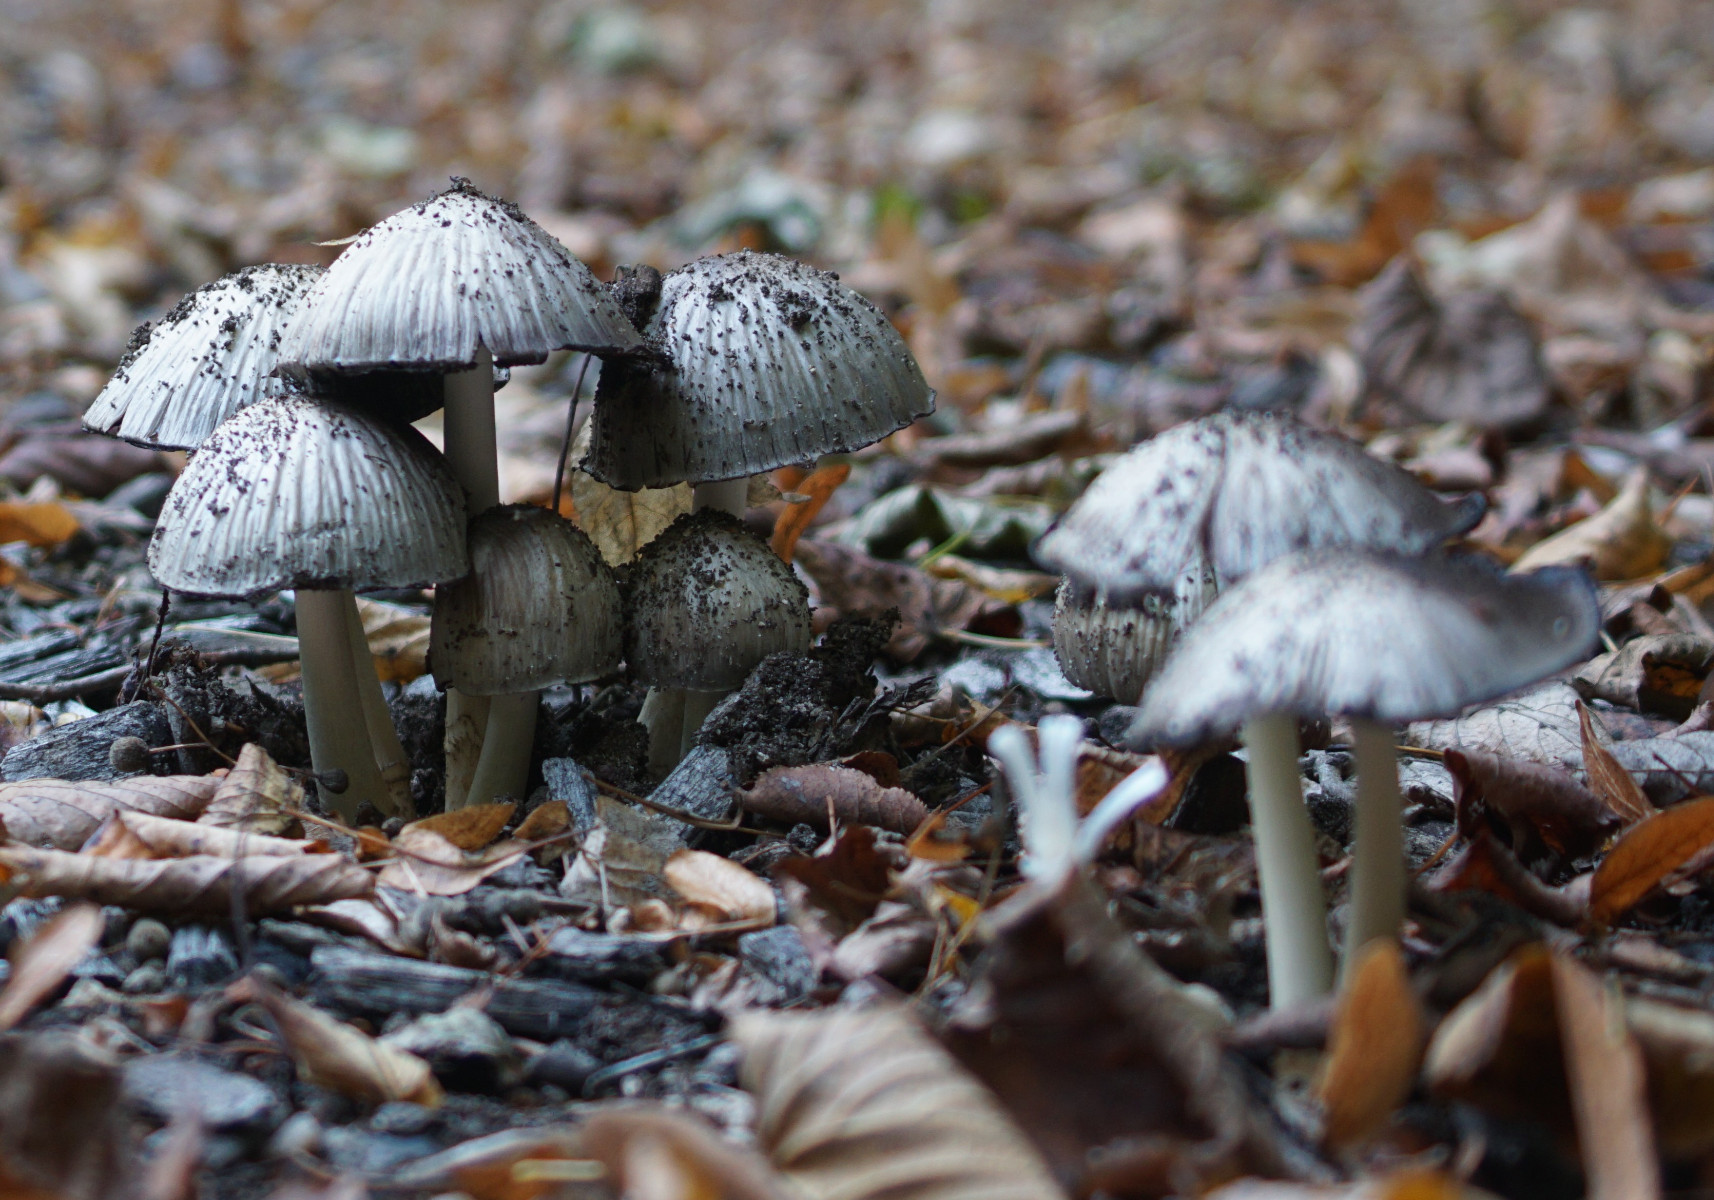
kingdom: Fungi
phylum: Basidiomycota
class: Agaricomycetes
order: Agaricales
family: Psathyrellaceae
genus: Coprinopsis
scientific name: Coprinopsis atramentaria
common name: almindelig blækhat
